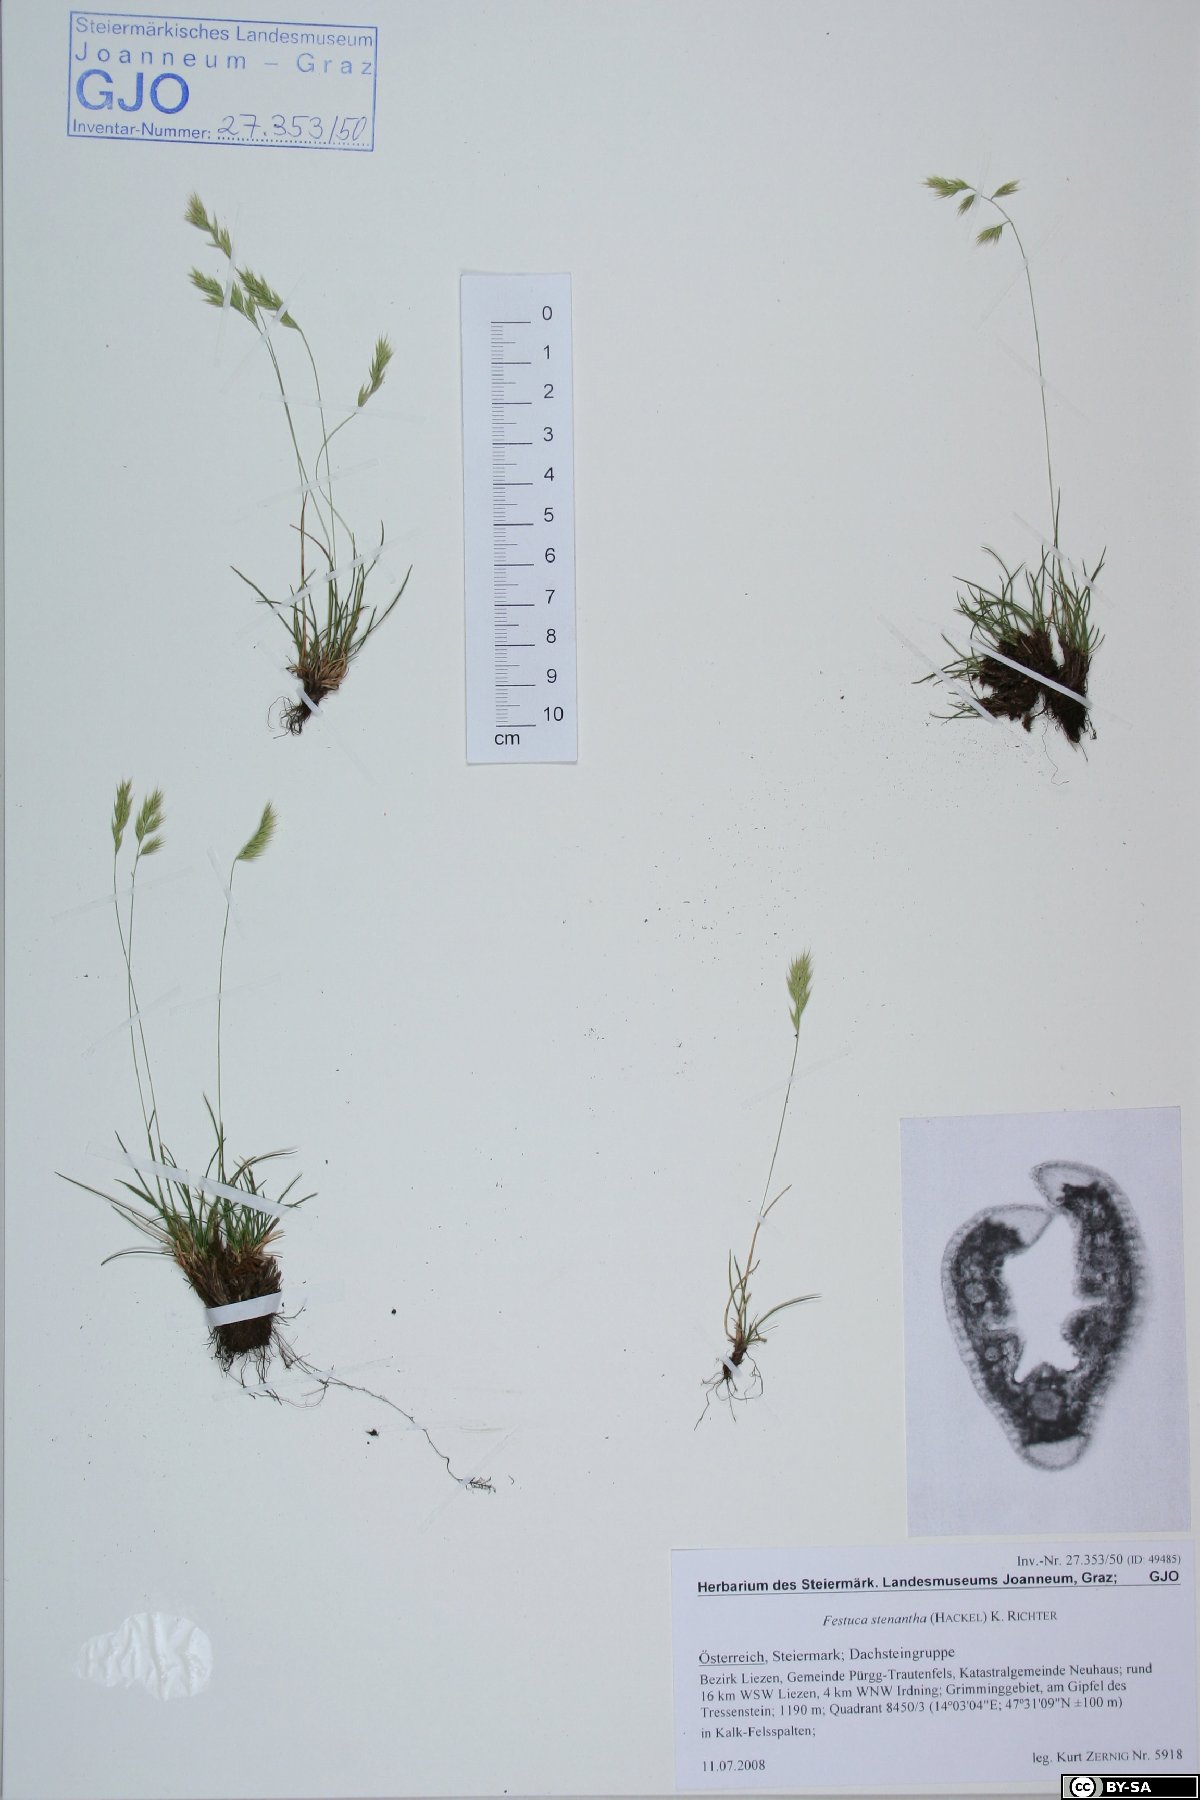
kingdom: Plantae
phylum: Tracheophyta
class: Liliopsida
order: Poales
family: Poaceae
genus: Festuca
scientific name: Festuca rupicaprina
